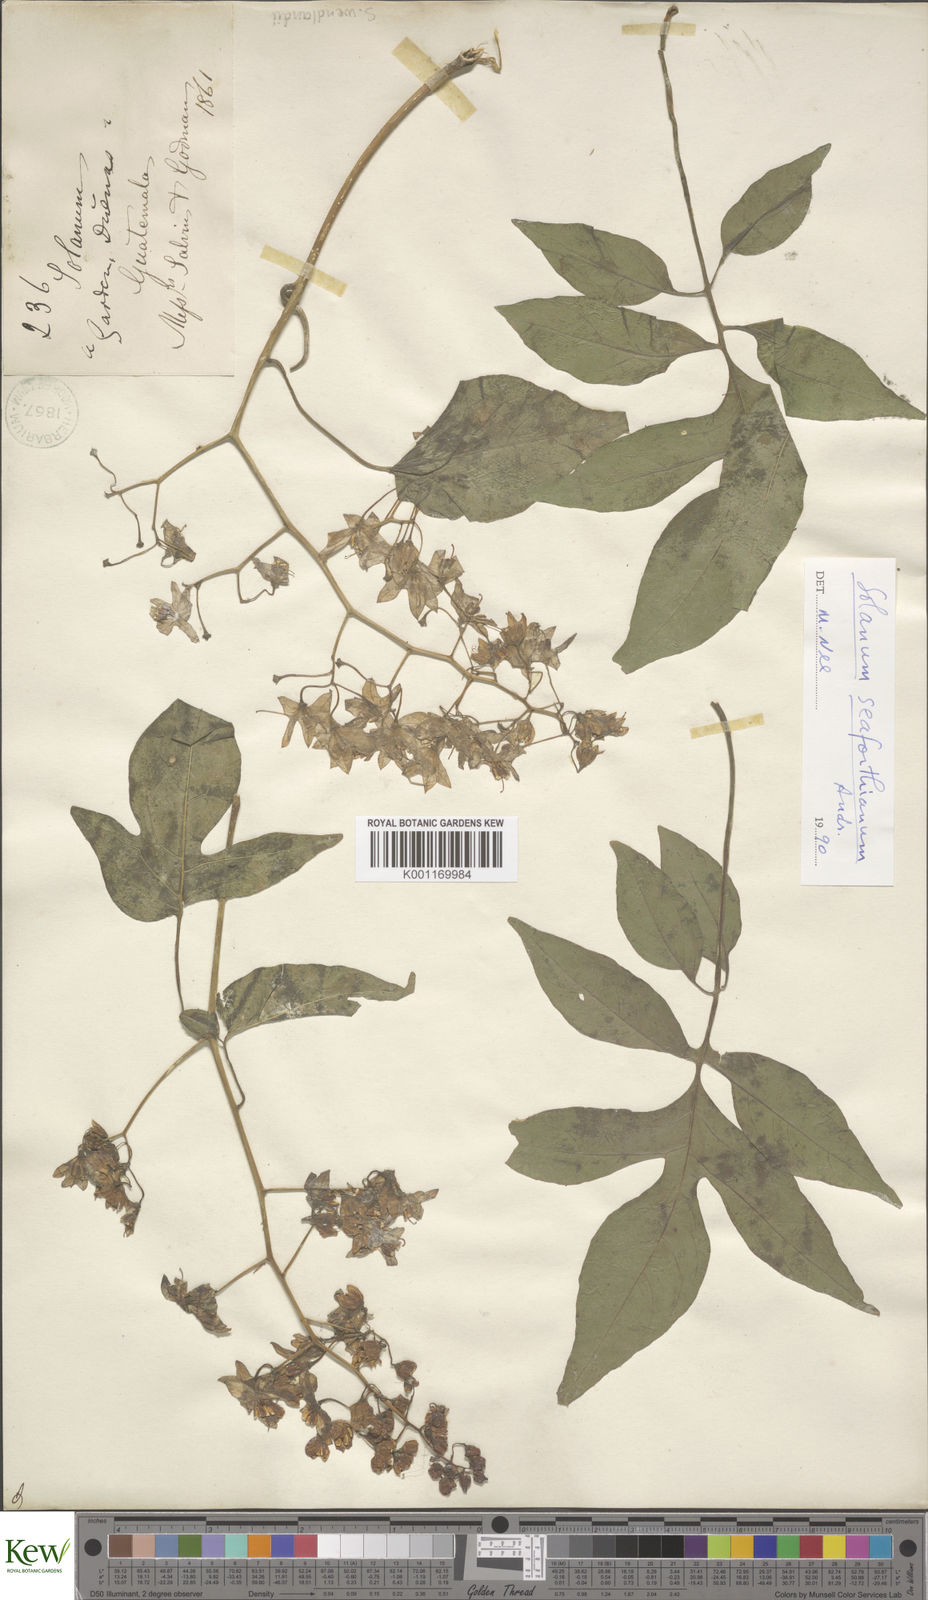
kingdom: Plantae
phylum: Tracheophyta
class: Magnoliopsida
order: Solanales
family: Solanaceae
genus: Solanum
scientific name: Solanum seaforthianum
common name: Brazilian nightshade
